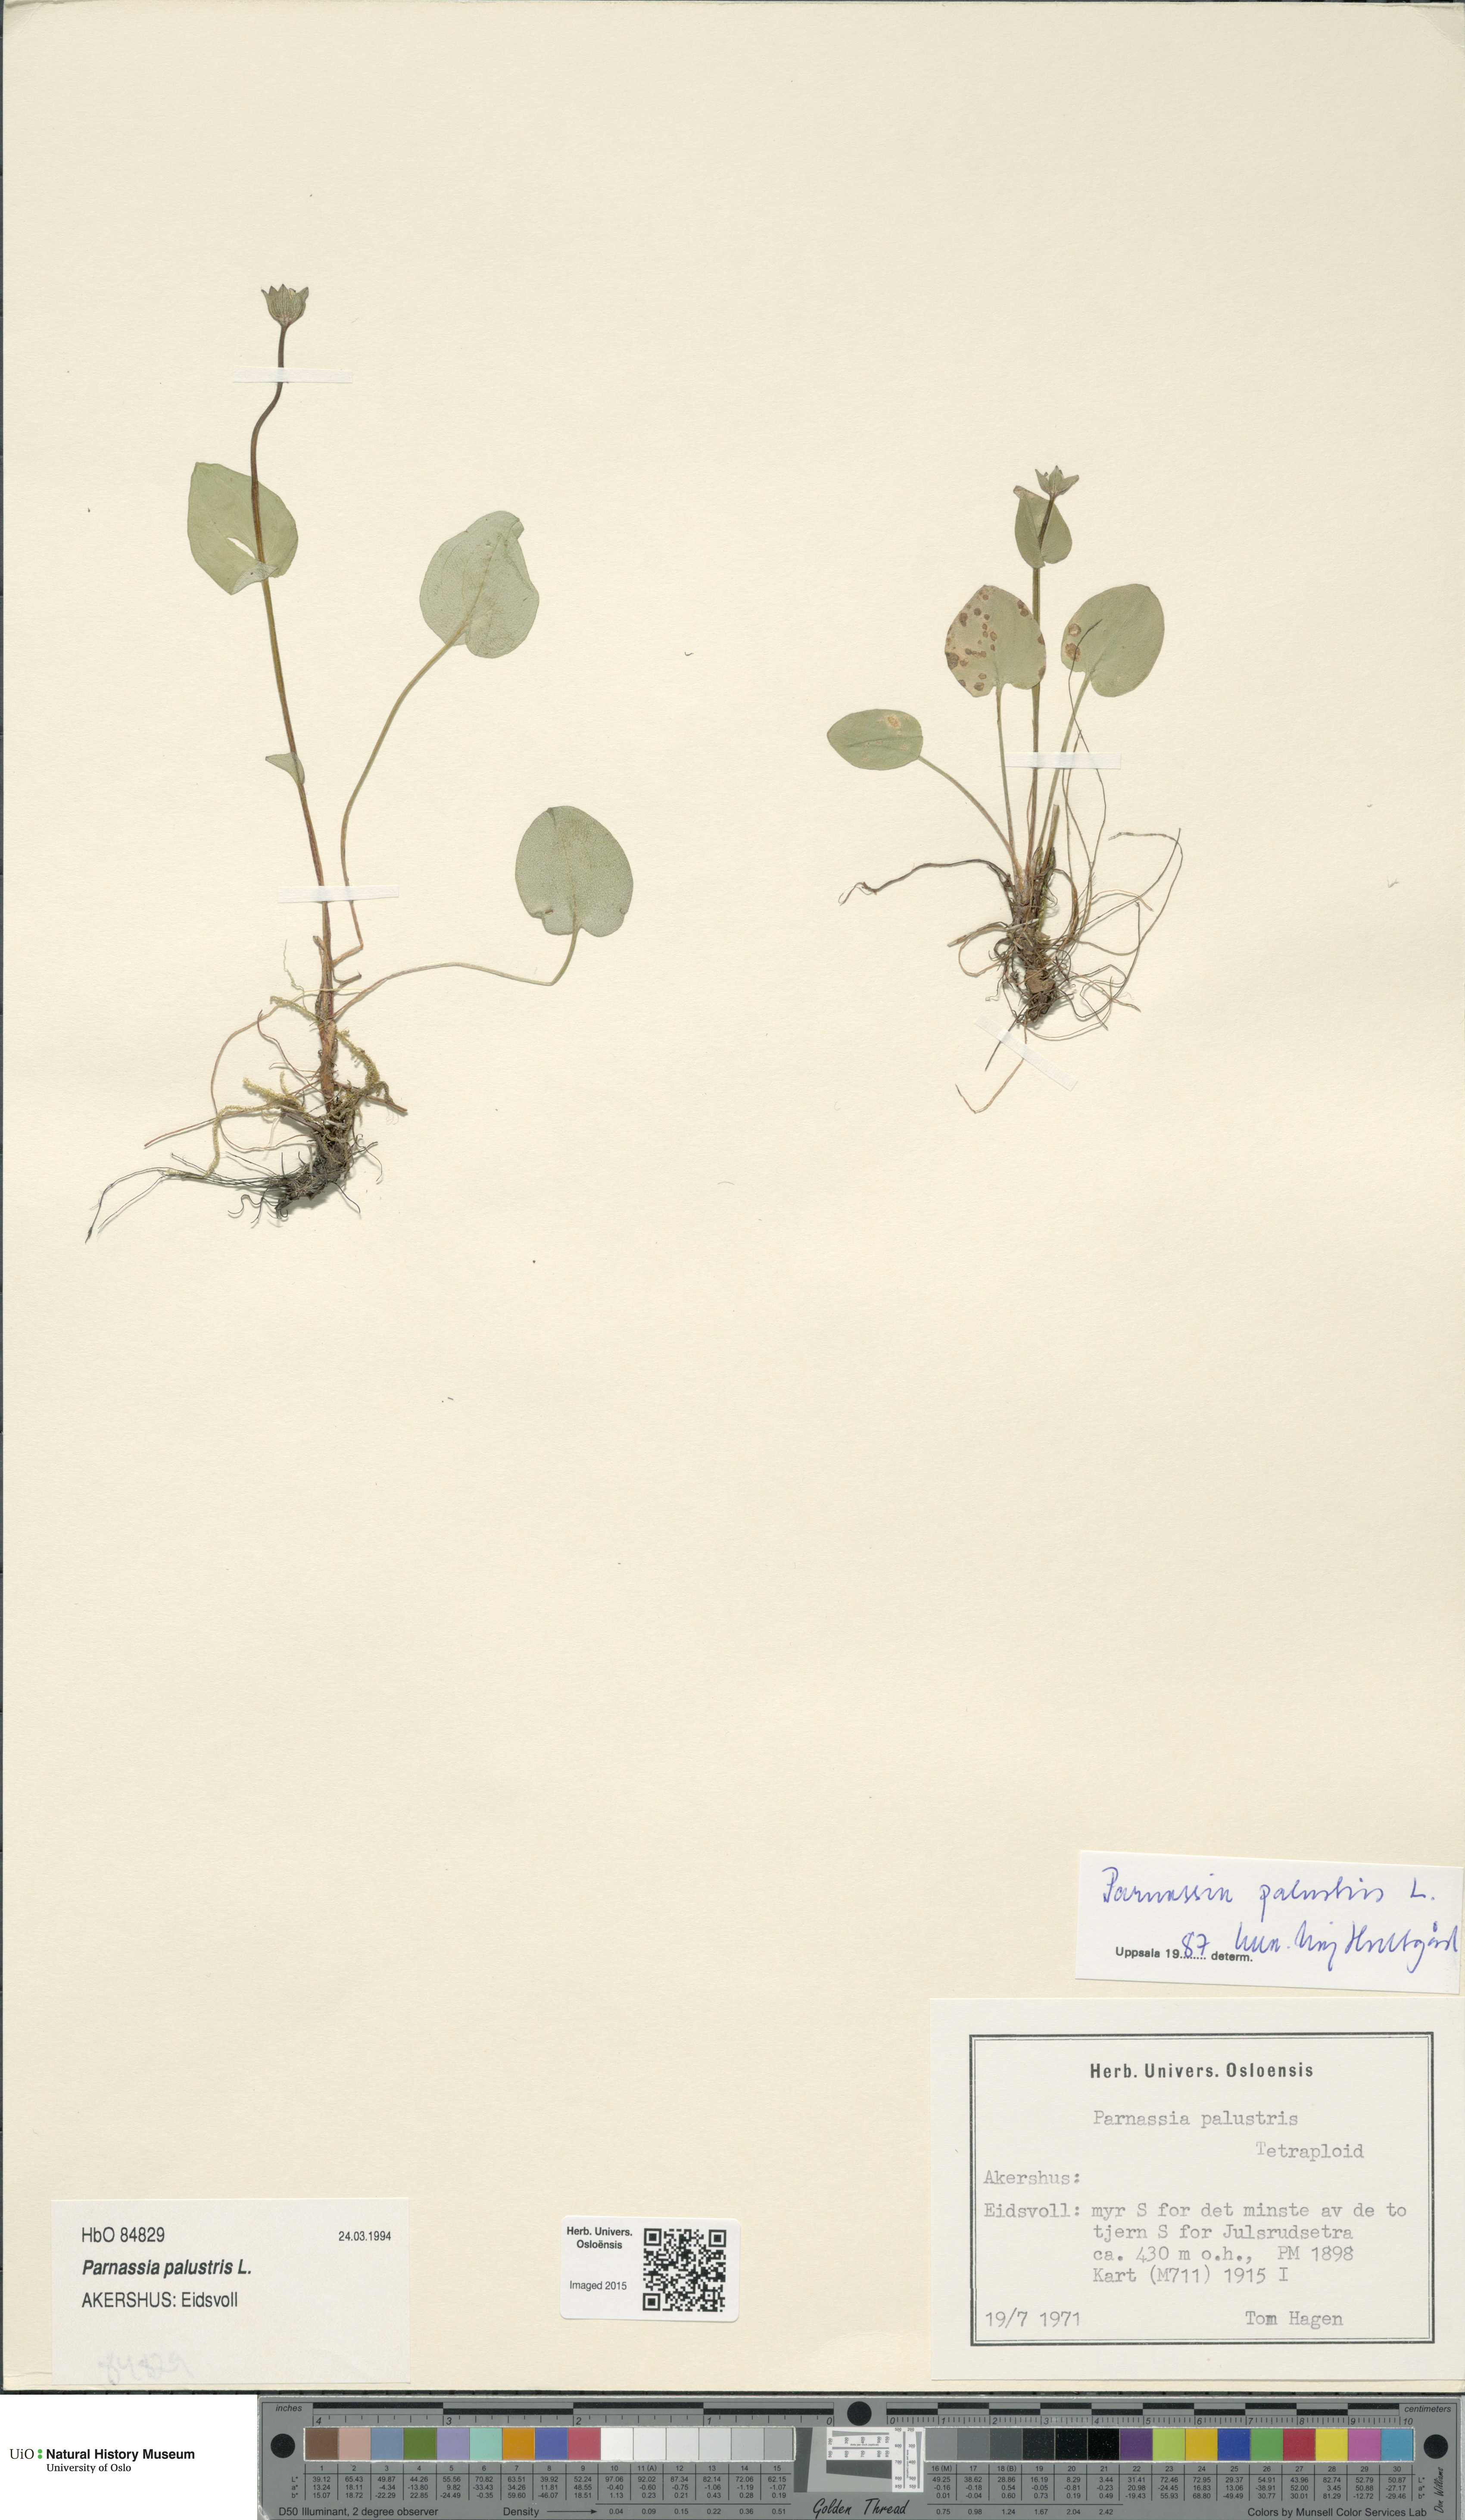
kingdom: Plantae
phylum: Tracheophyta
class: Magnoliopsida
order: Celastrales
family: Parnassiaceae
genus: Parnassia
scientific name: Parnassia palustris
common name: Grass-of-parnassus
